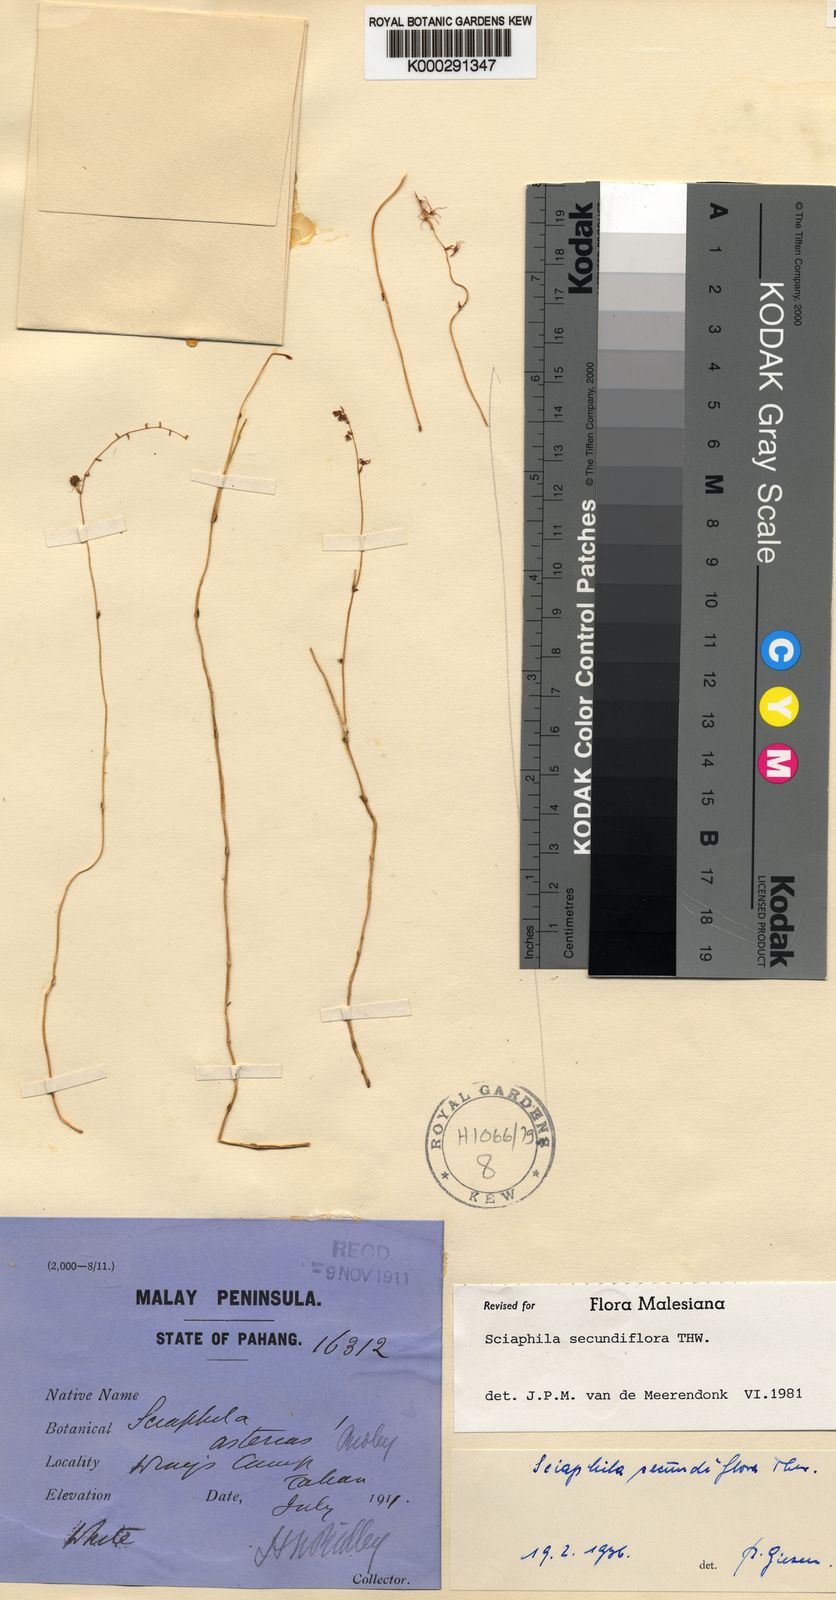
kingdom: Plantae
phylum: Tracheophyta
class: Liliopsida
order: Pandanales
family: Triuridaceae
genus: Sciaphila
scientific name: Sciaphila secundiflora
